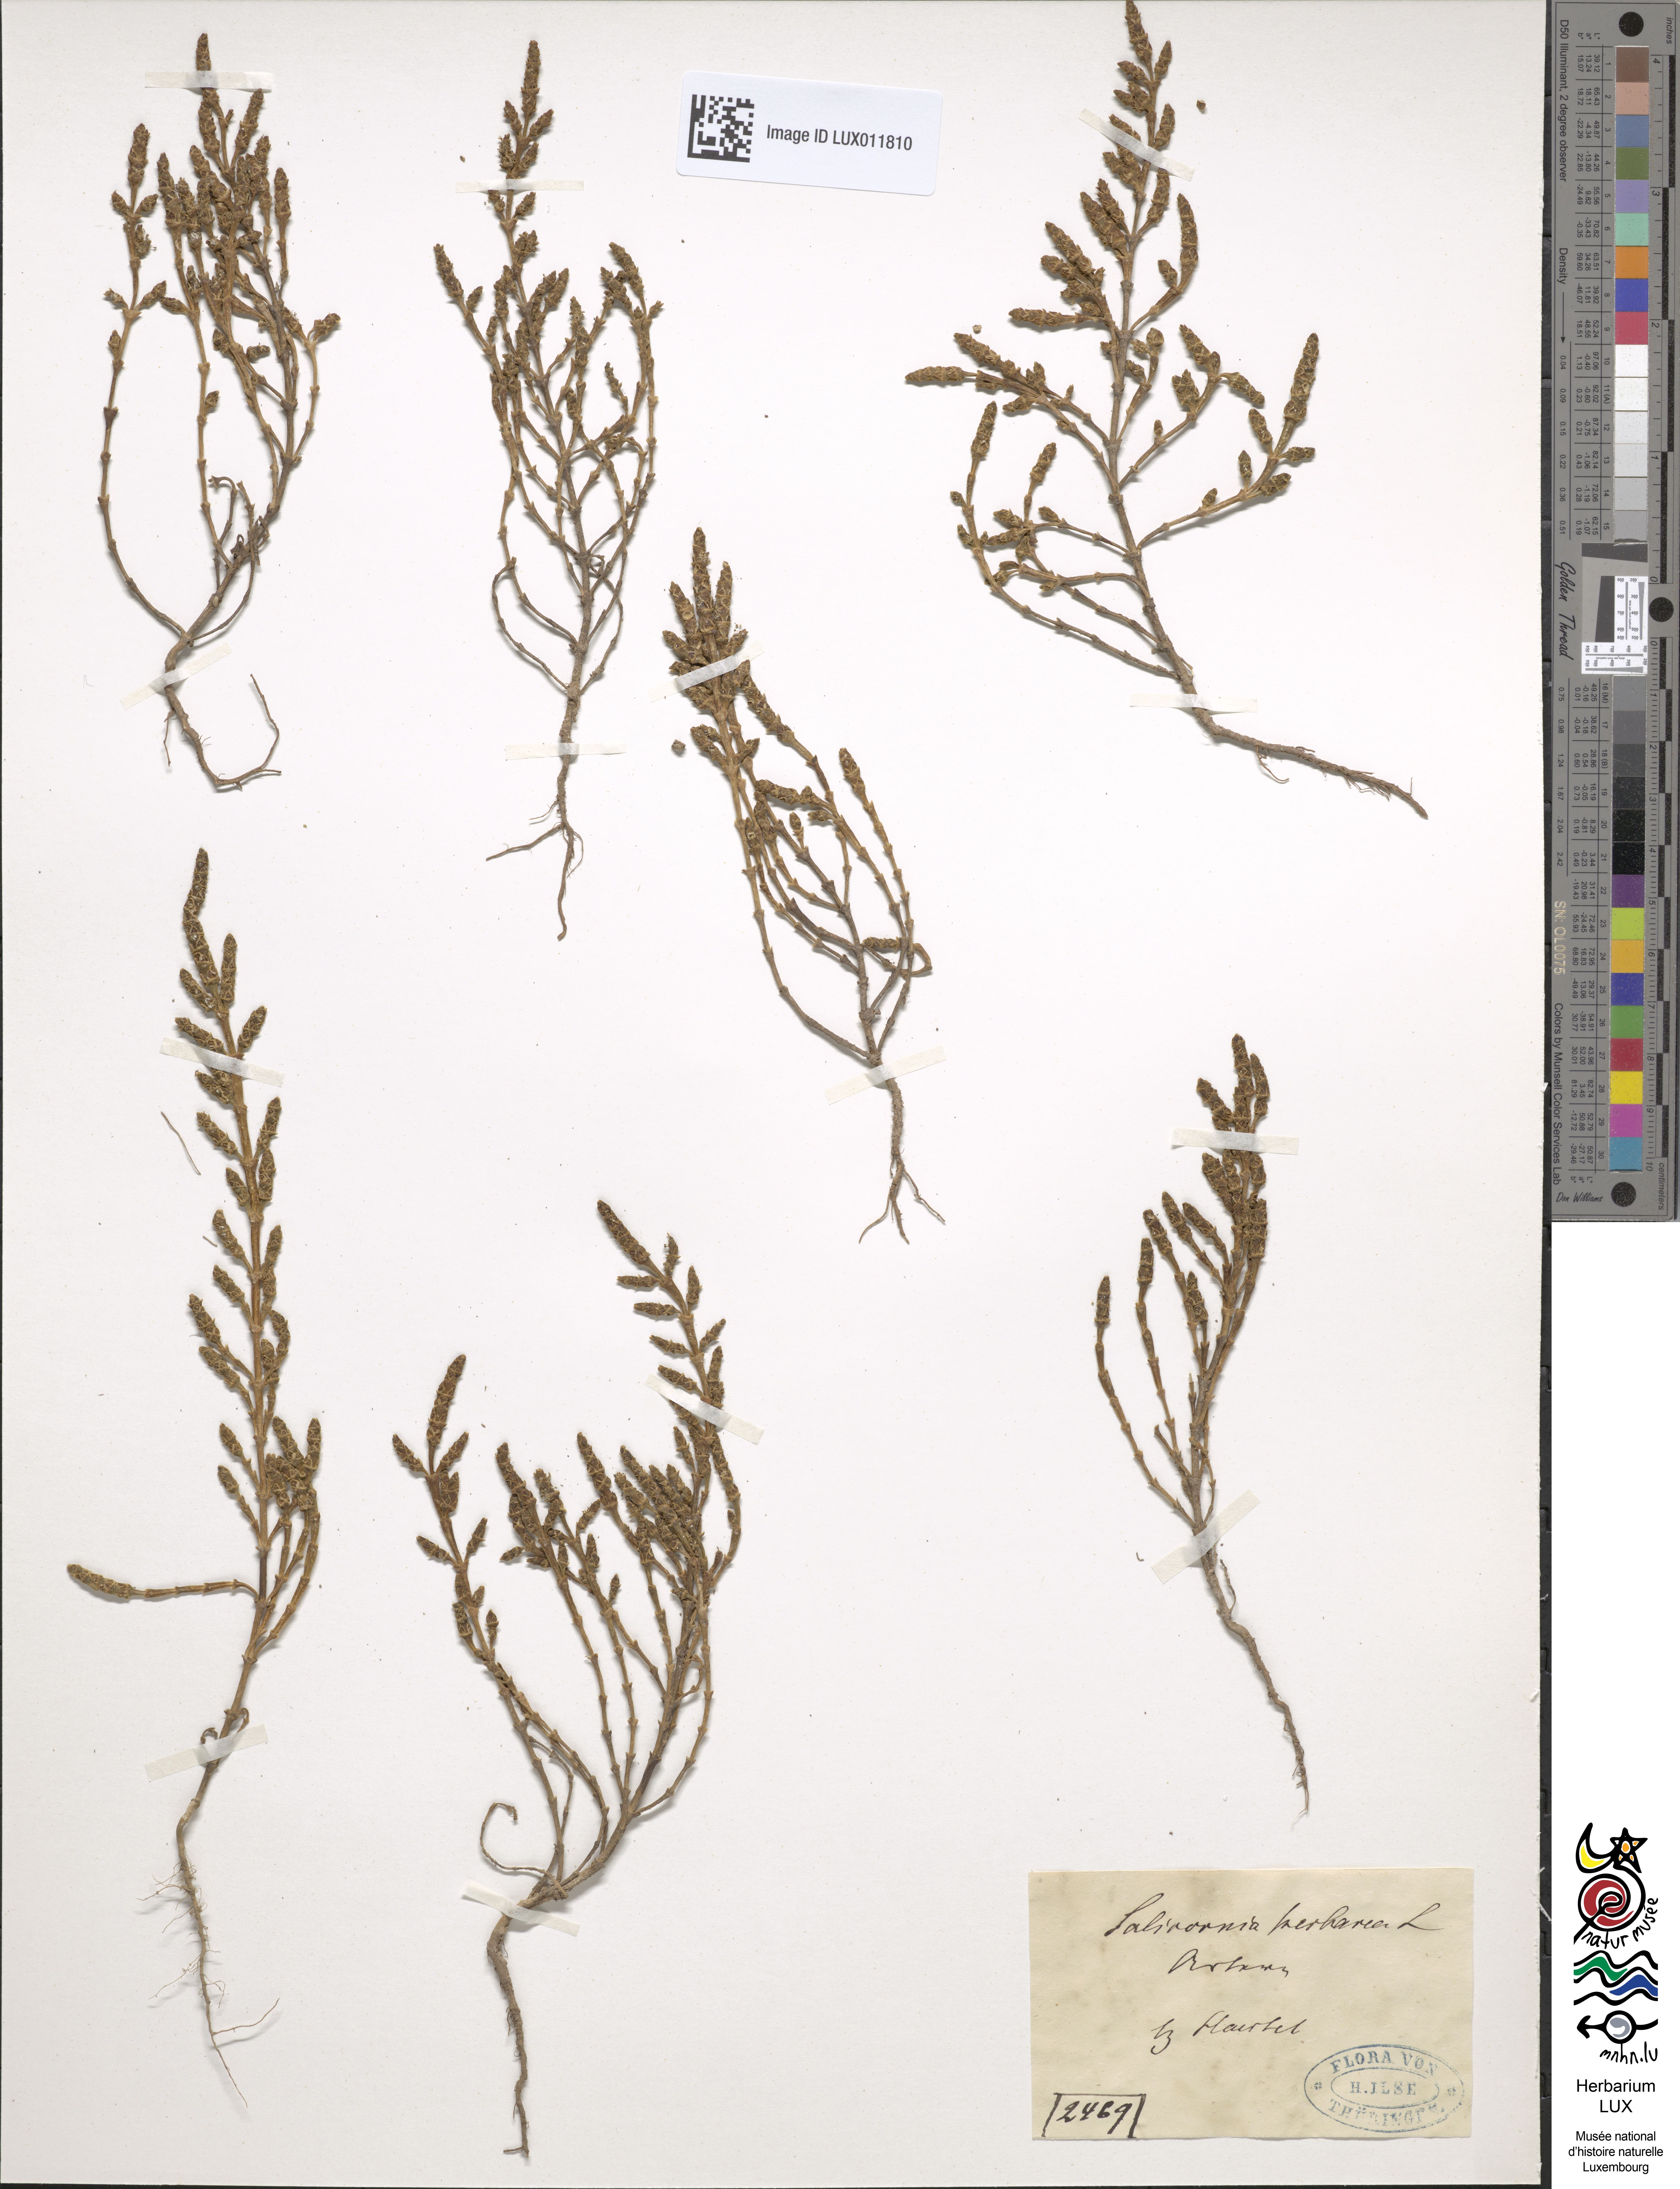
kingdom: Plantae
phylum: Tracheophyta
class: Magnoliopsida
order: Caryophyllales
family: Amaranthaceae
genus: Salicornia
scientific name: Salicornia europaea
